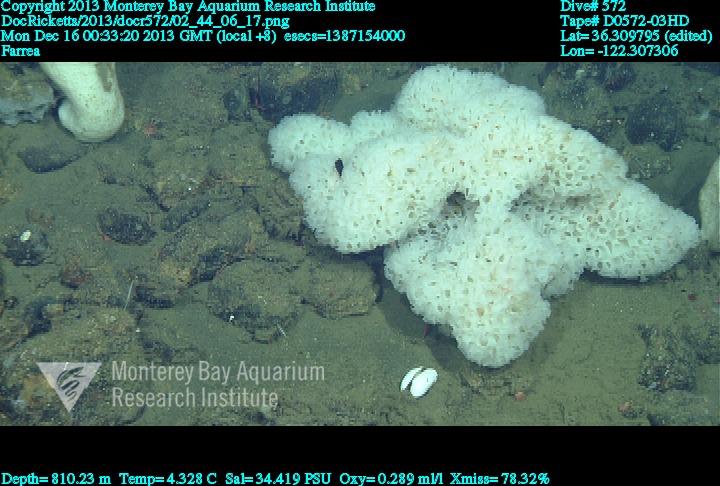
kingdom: Animalia
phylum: Porifera
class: Hexactinellida
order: Sceptrulophora
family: Farreidae
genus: Farrea
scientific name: Farrea
